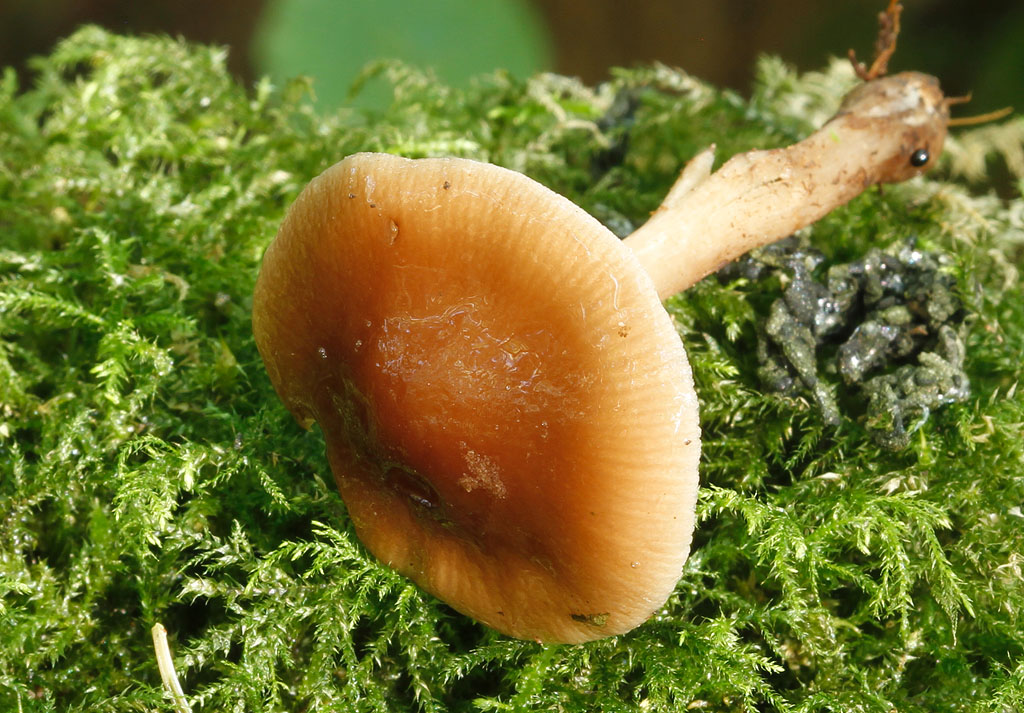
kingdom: Fungi
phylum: Basidiomycota
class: Agaricomycetes
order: Agaricales
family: Tubariaceae
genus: Cyclocybe
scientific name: Cyclocybe erebia
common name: mørk agerhat
